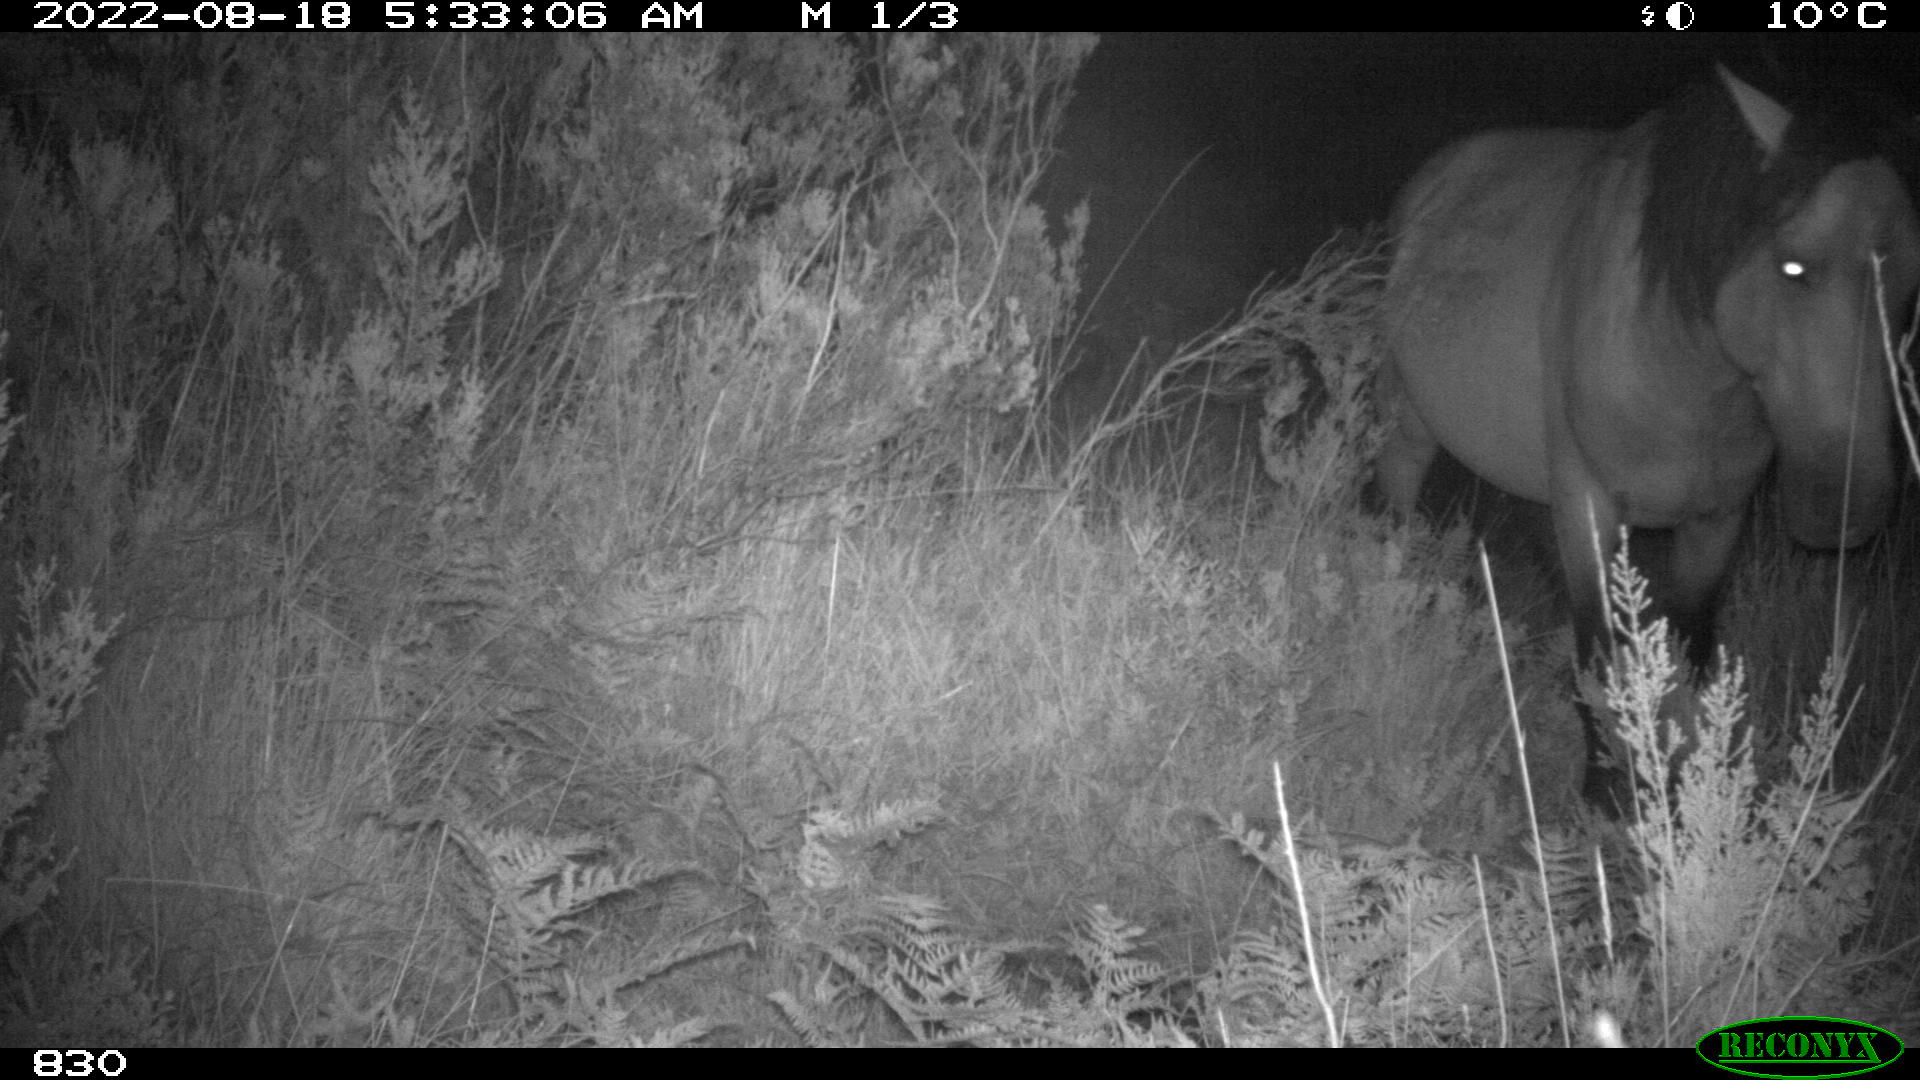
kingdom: Animalia
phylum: Chordata
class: Mammalia
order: Perissodactyla
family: Equidae
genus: Equus
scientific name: Equus caballus
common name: Horse
